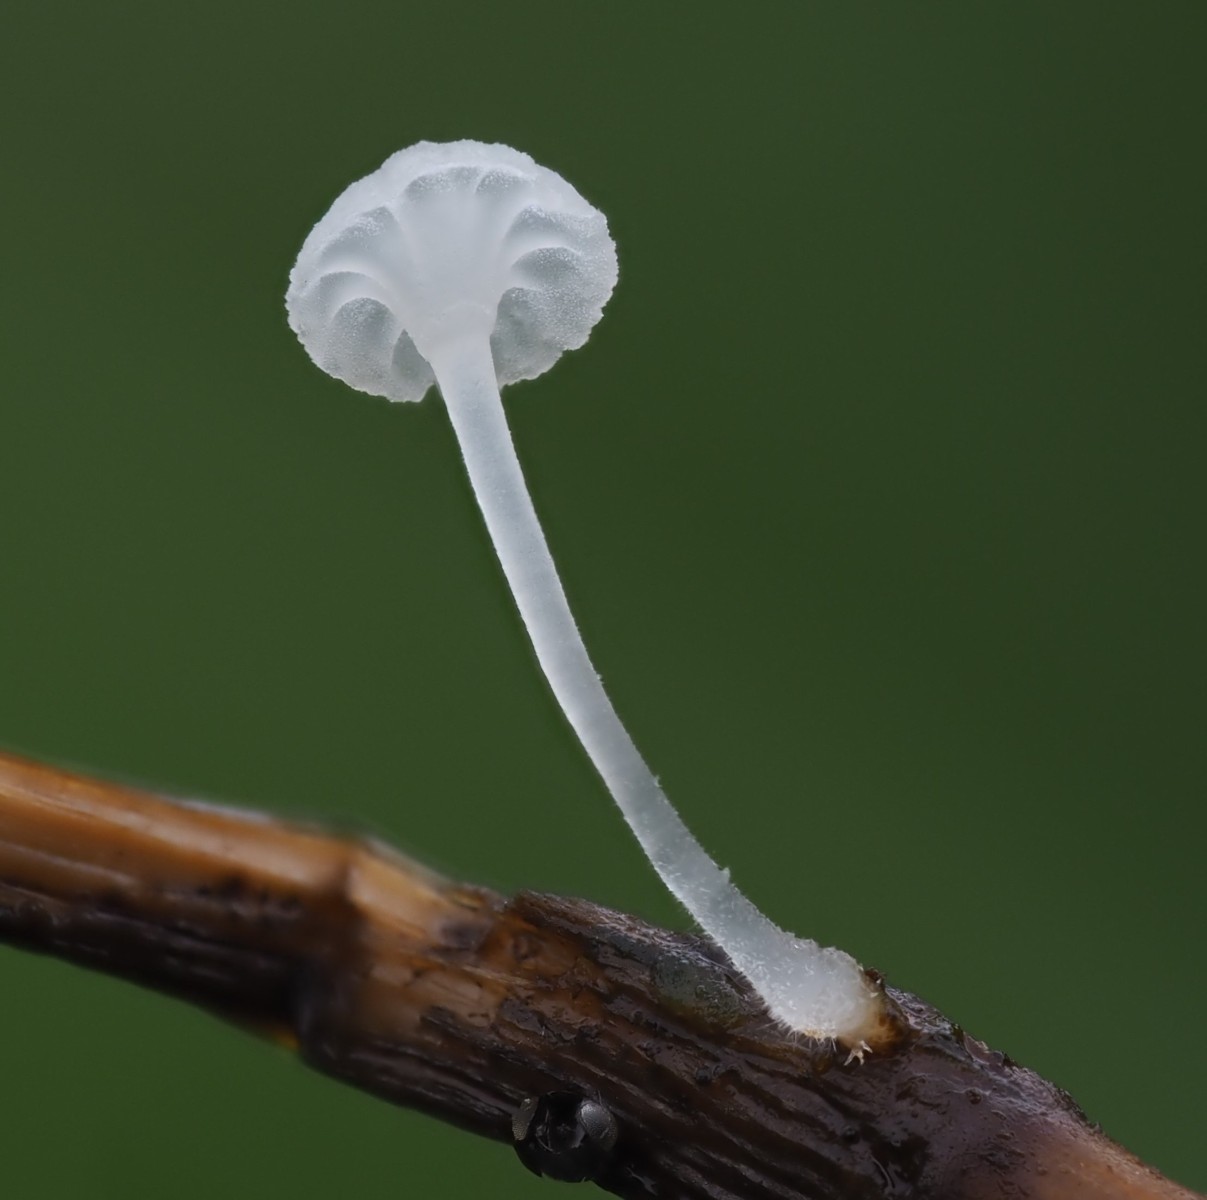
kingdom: Fungi
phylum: Basidiomycota
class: Agaricomycetes
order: Agaricales
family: Mycenaceae
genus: Hemimycena
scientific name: Hemimycena
